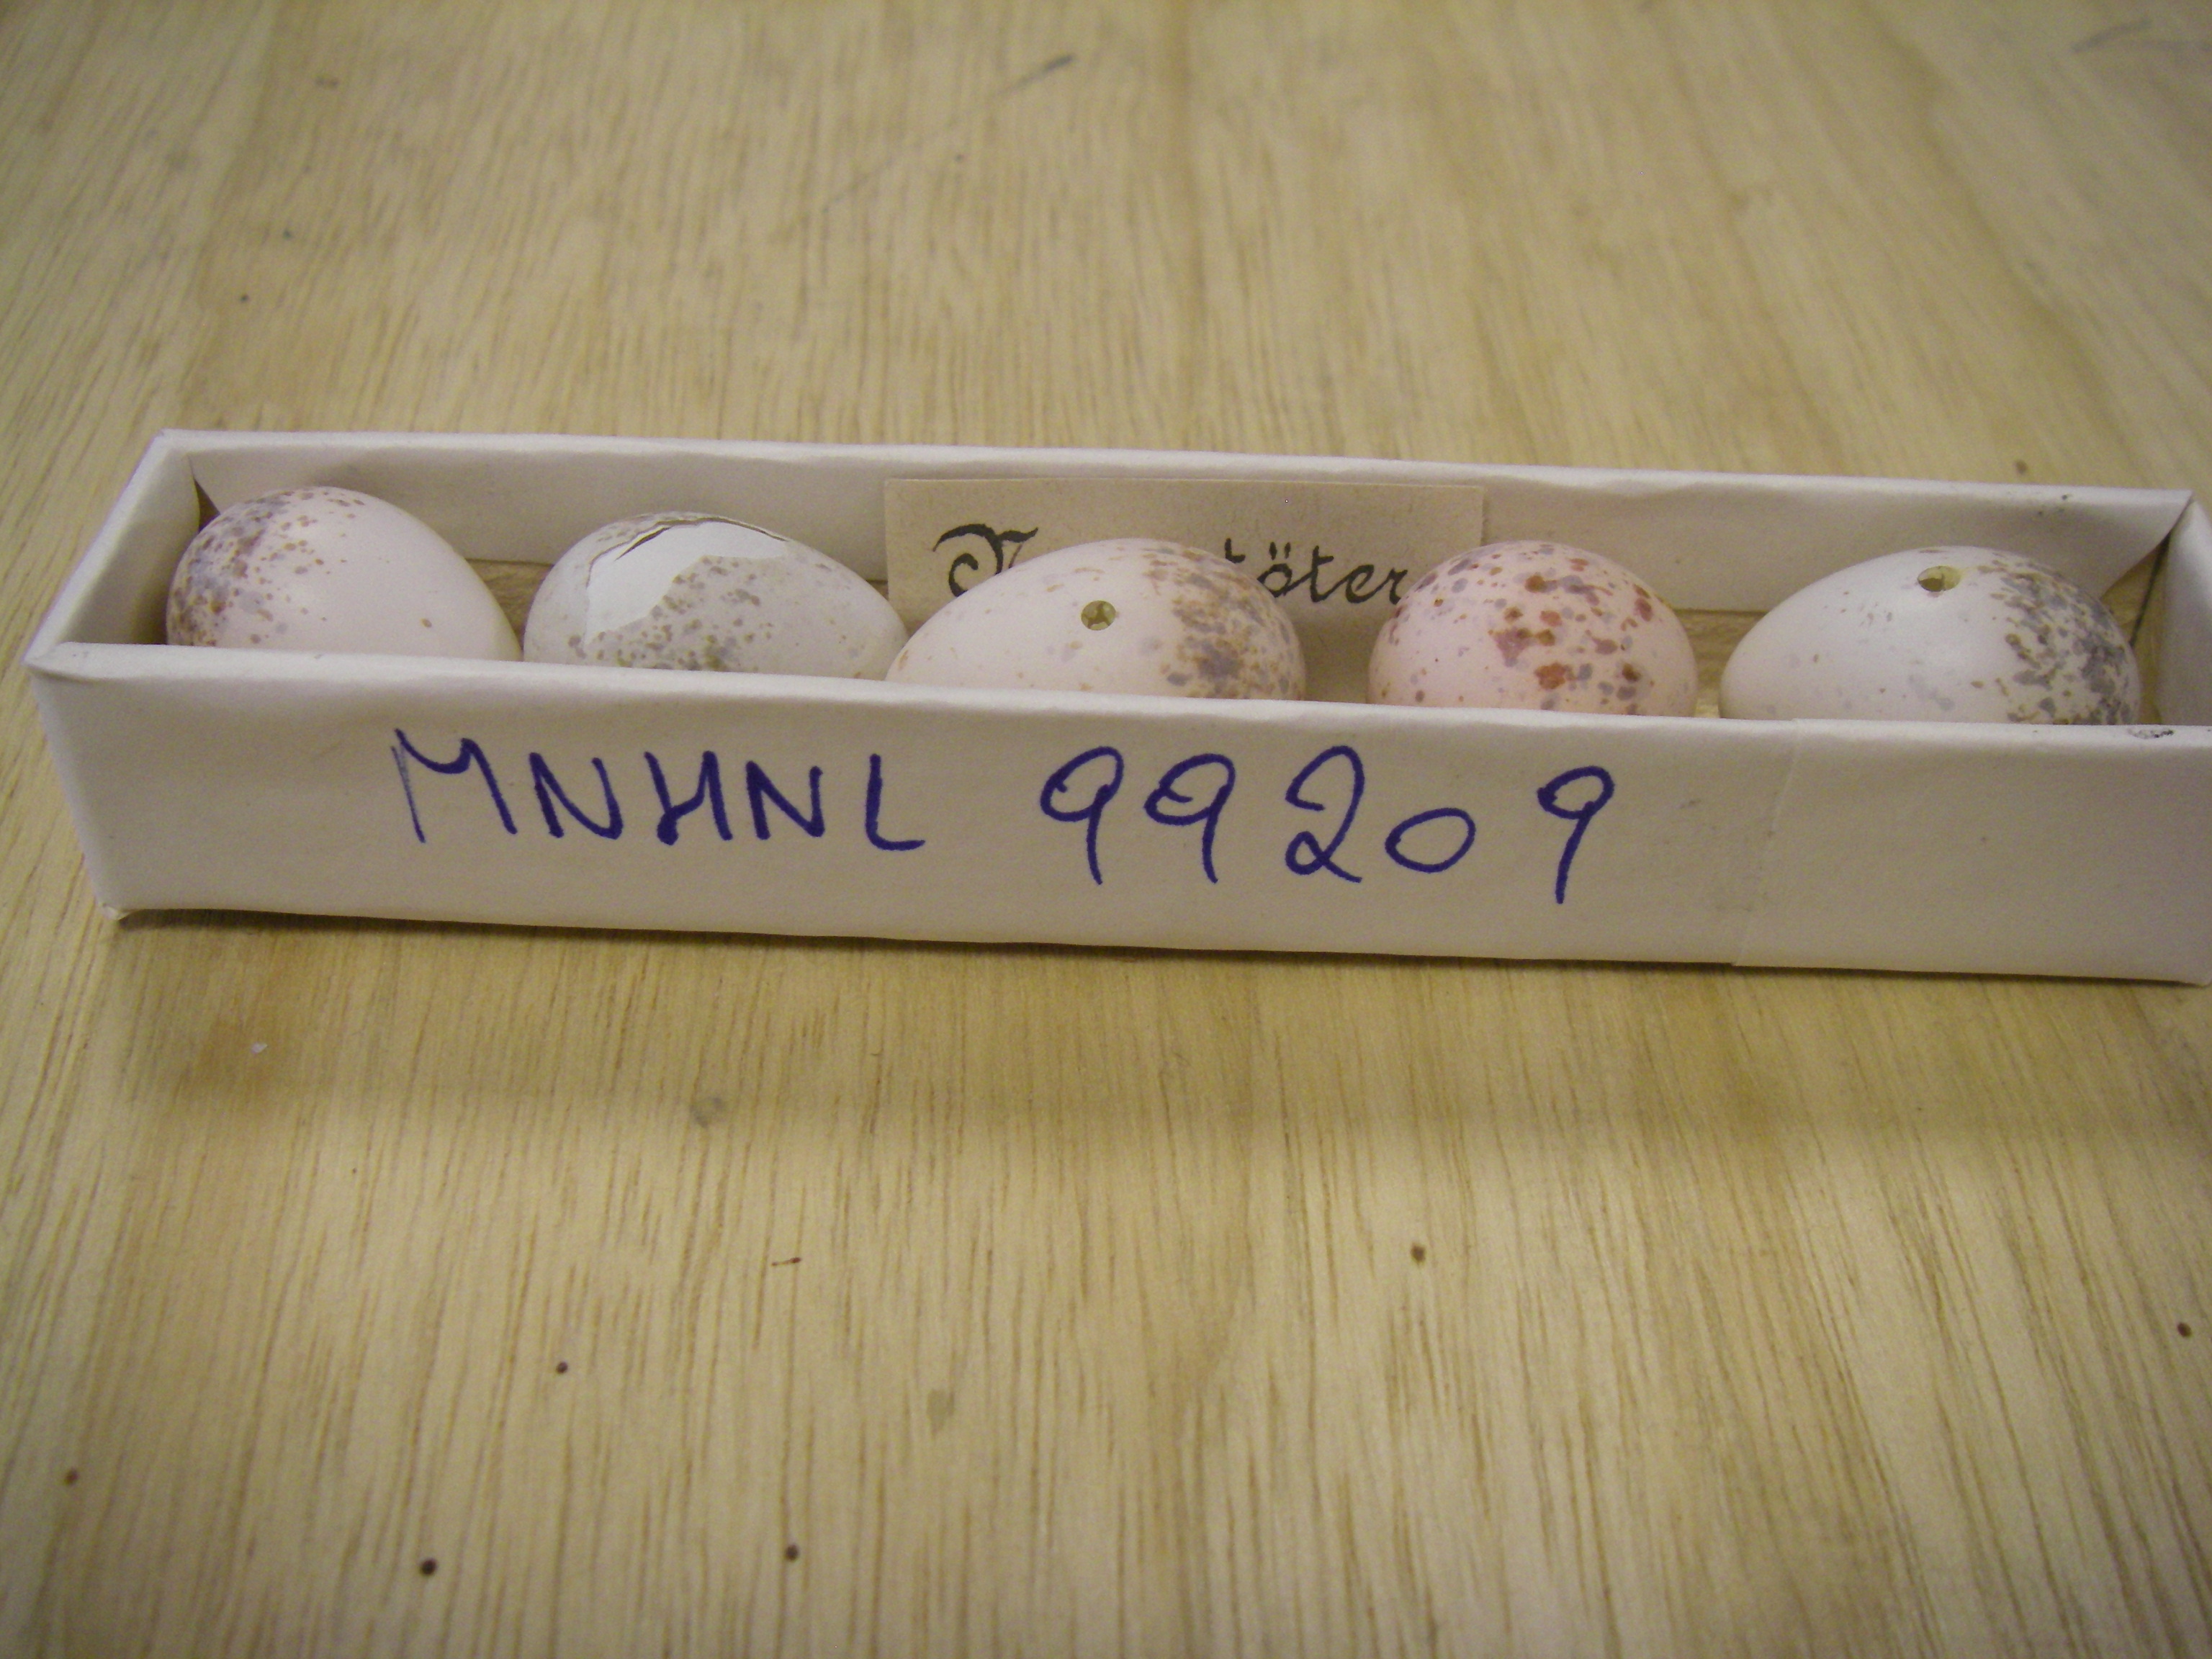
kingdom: Animalia
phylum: Chordata
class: Aves
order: Passeriformes
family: Laniidae
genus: Lanius
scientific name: Lanius collurio
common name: Red-backed shrike
